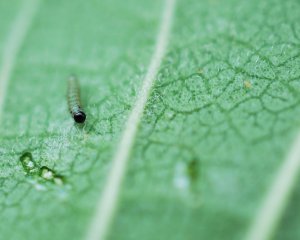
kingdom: Animalia
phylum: Arthropoda
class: Insecta
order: Lepidoptera
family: Nymphalidae
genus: Danaus
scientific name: Danaus plexippus
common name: Monarch
